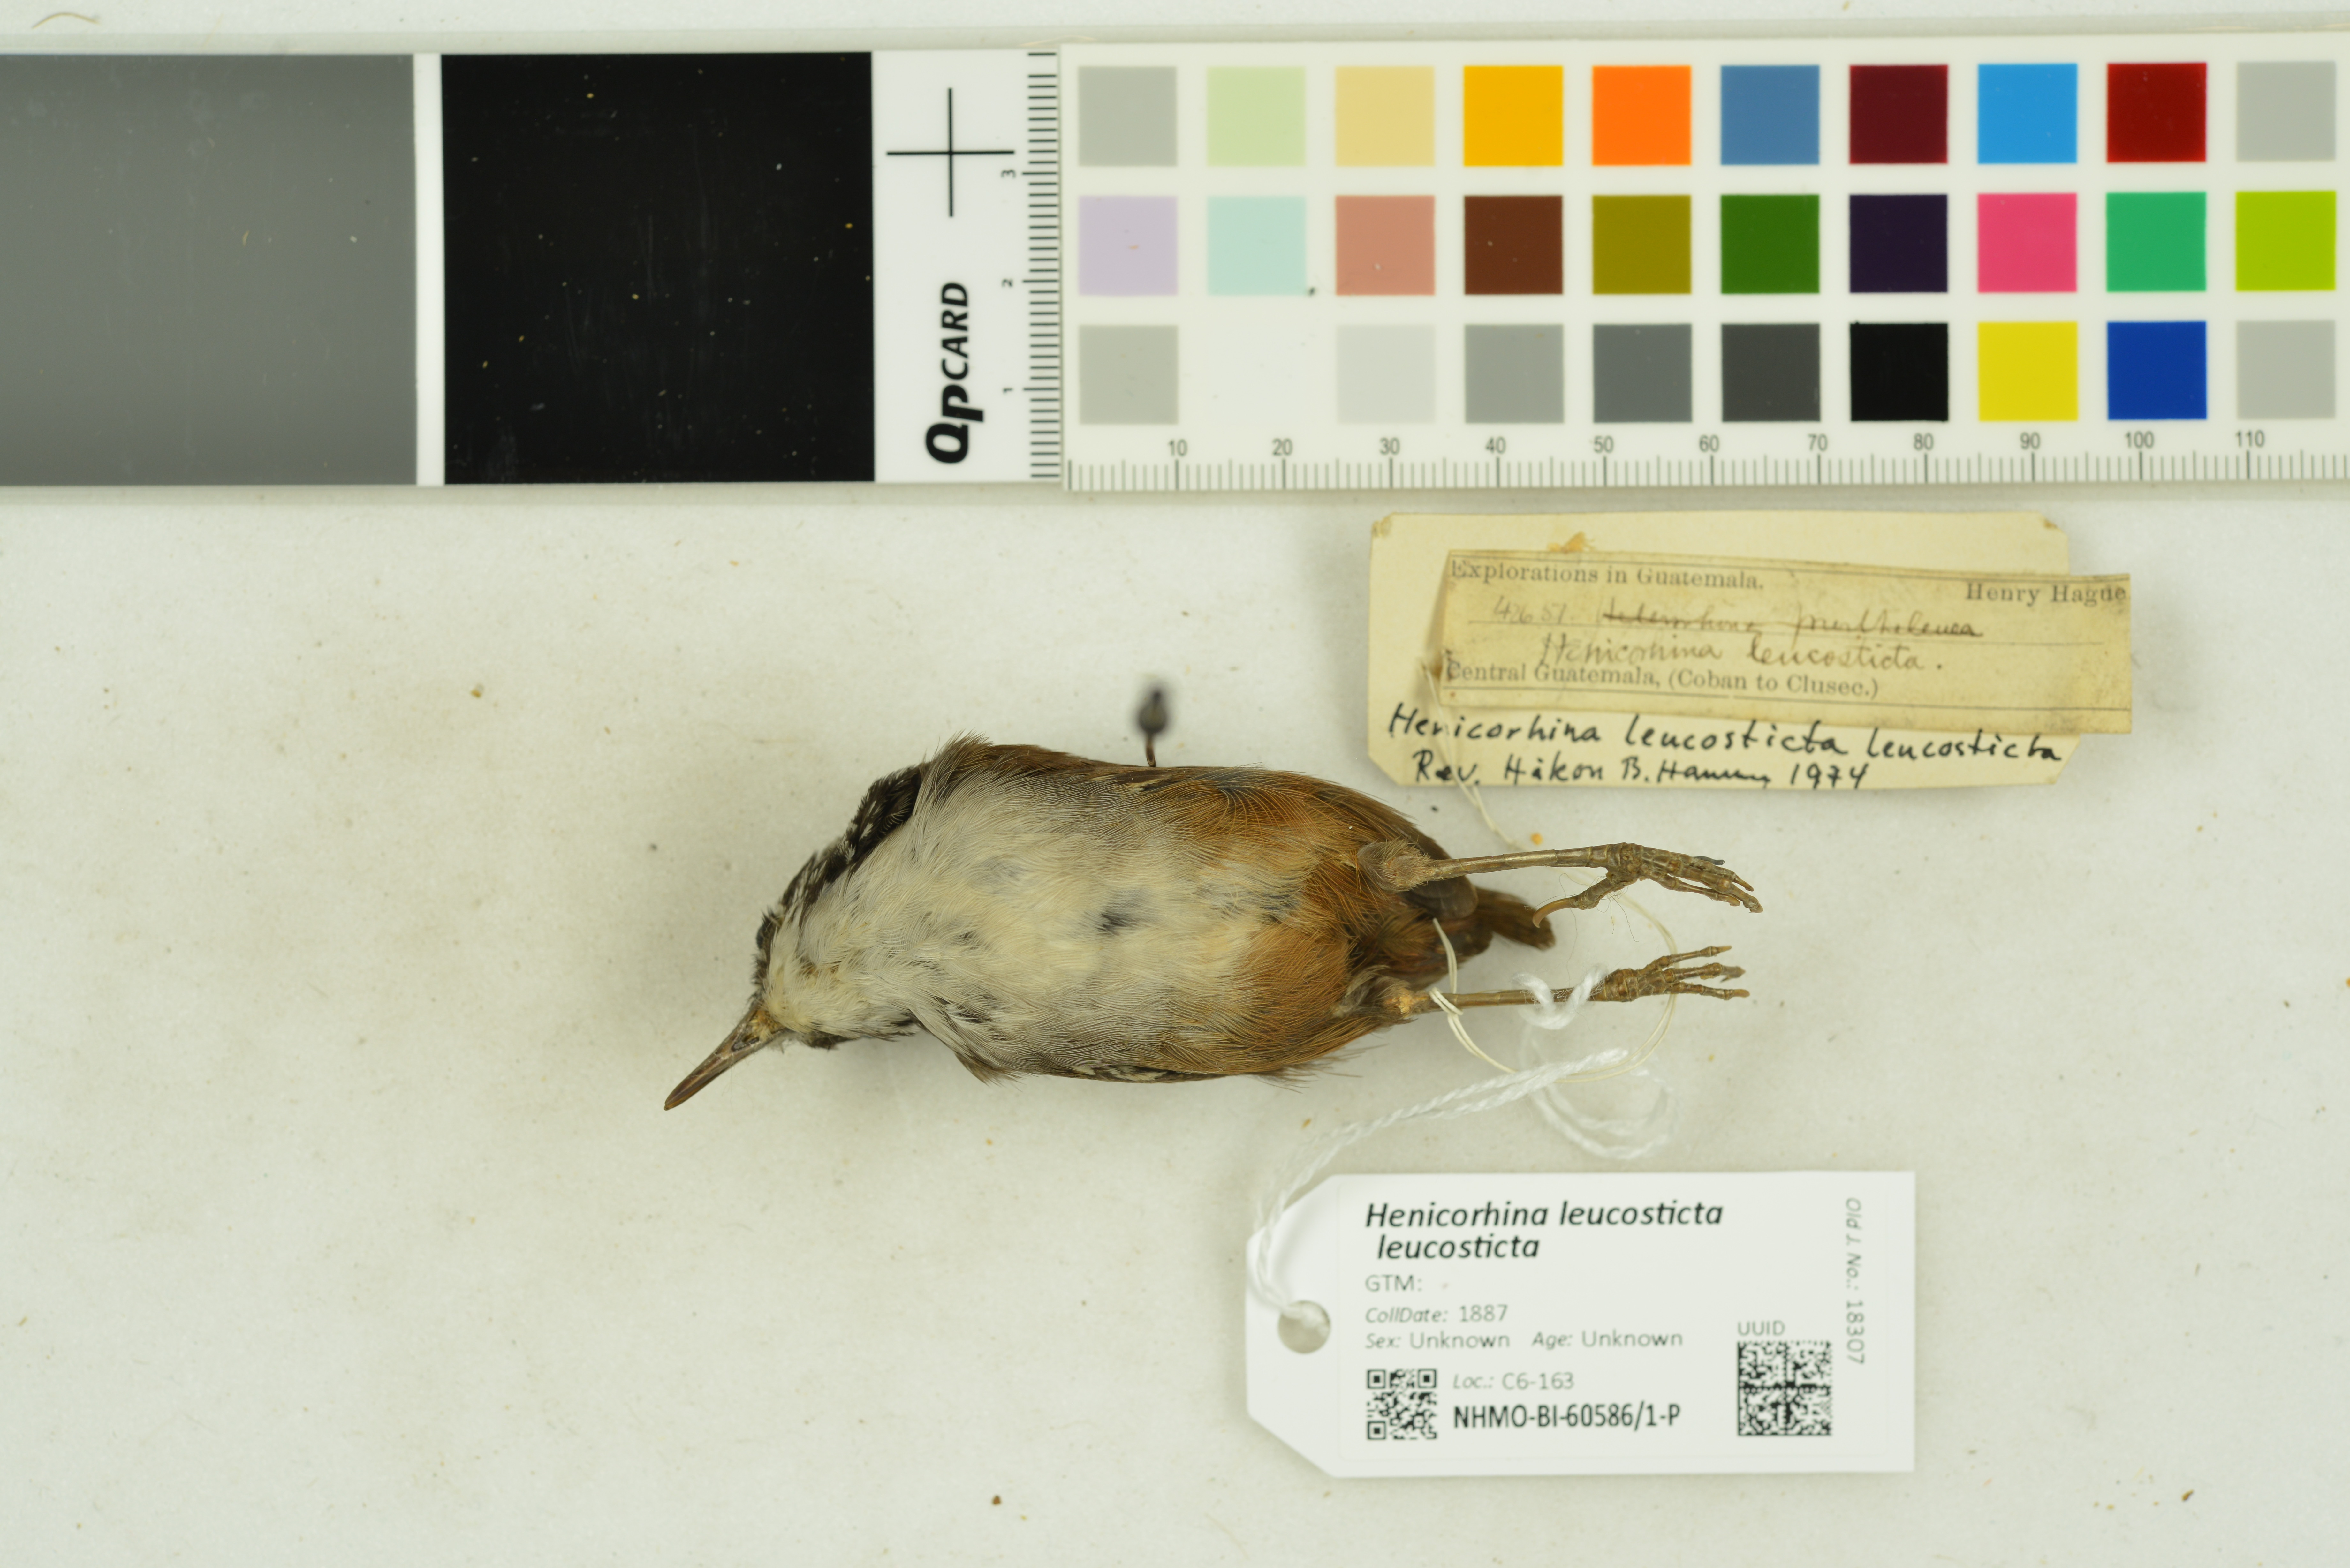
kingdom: Animalia
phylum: Chordata
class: Aves
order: Passeriformes
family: Troglodytidae
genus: Henicorhina
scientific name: Henicorhina leucosticta
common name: White-breasted wood-wren
